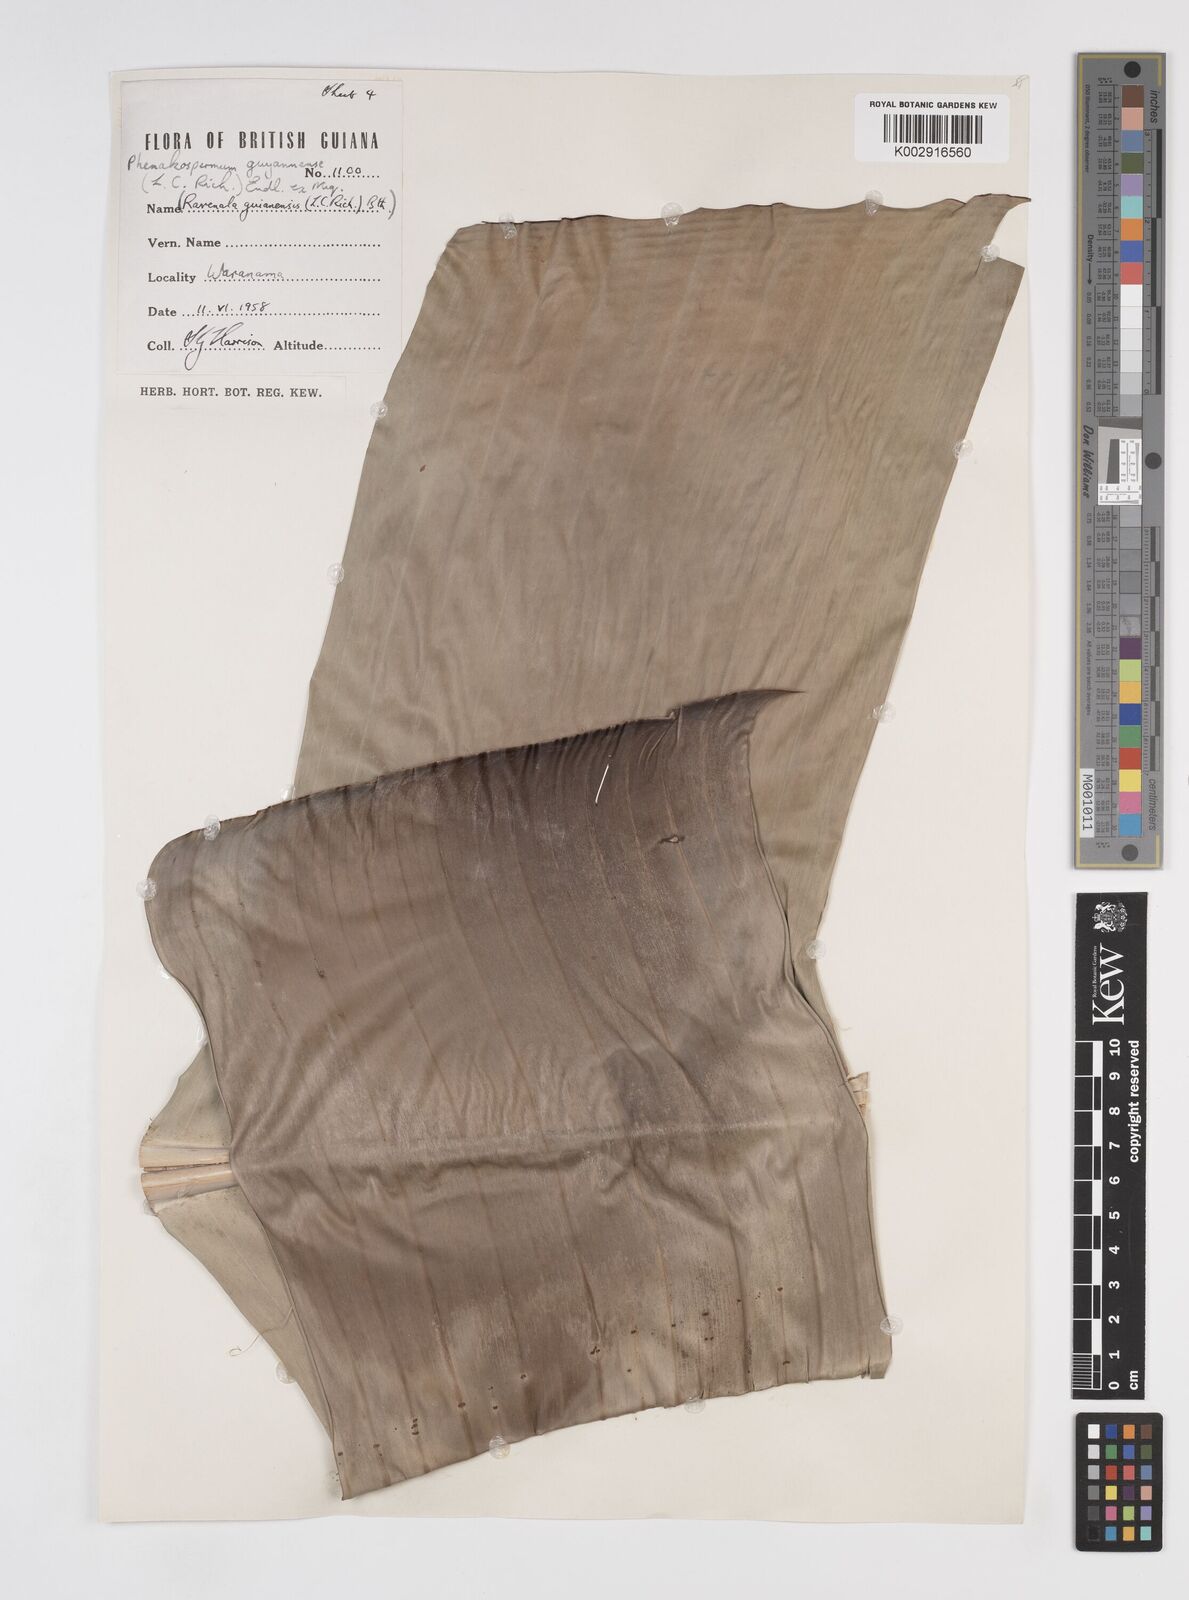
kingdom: Plantae
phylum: Tracheophyta
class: Liliopsida
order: Zingiberales
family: Strelitziaceae
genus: Phenakospermum
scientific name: Phenakospermum guyannense
